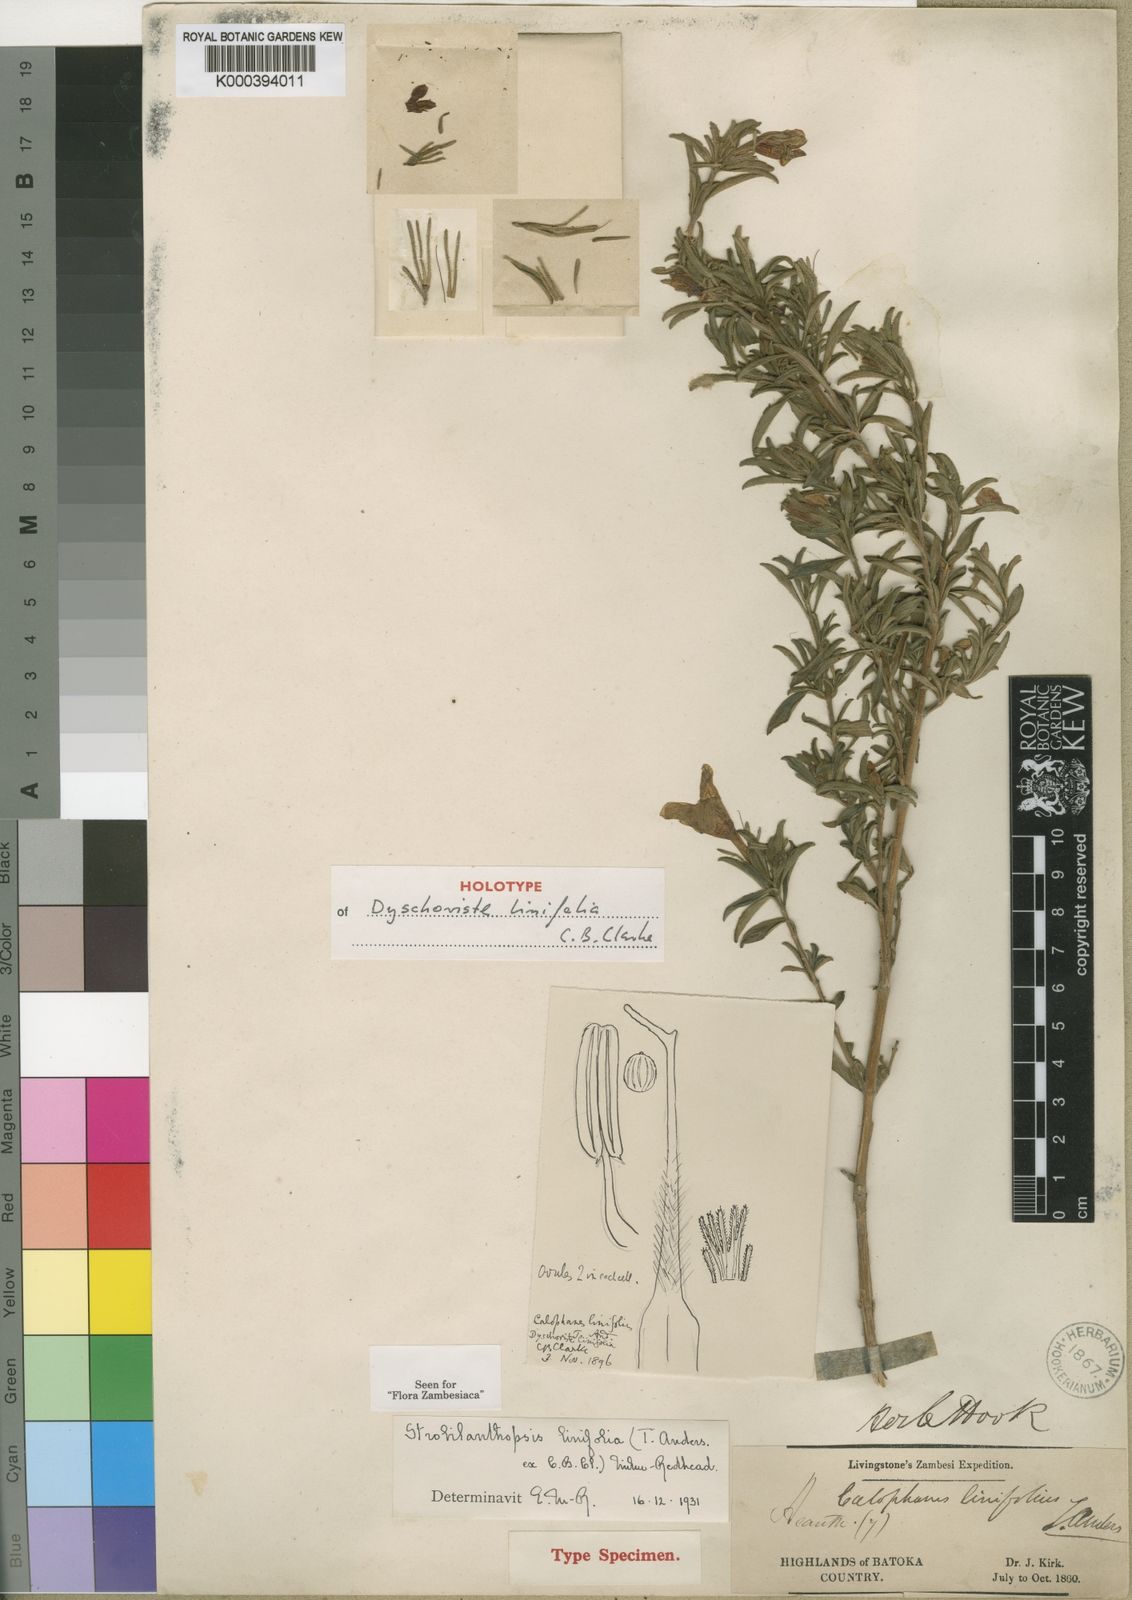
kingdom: Plantae
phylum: Tracheophyta
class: Magnoliopsida
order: Lamiales
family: Acanthaceae
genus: Strobilanthopsis
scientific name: Strobilanthopsis linifolia
